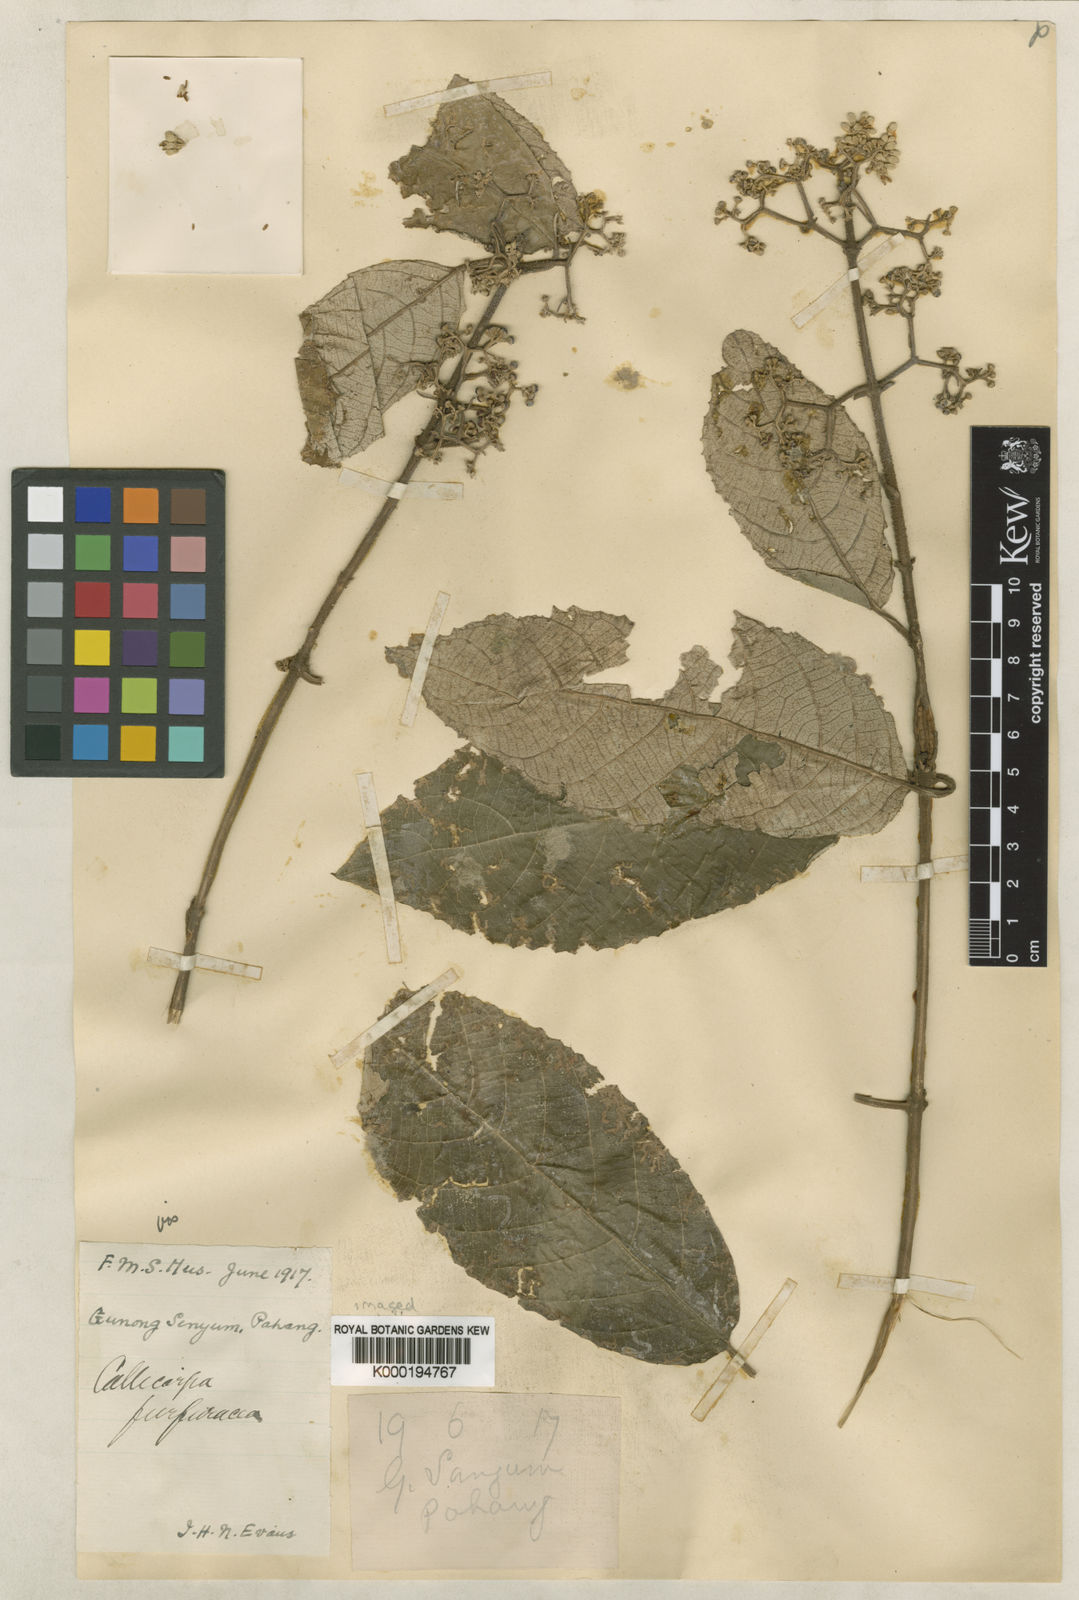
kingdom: Plantae
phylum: Tracheophyta
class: Magnoliopsida
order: Lamiales
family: Lamiaceae
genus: Callicarpa
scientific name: Callicarpa furfuracea
